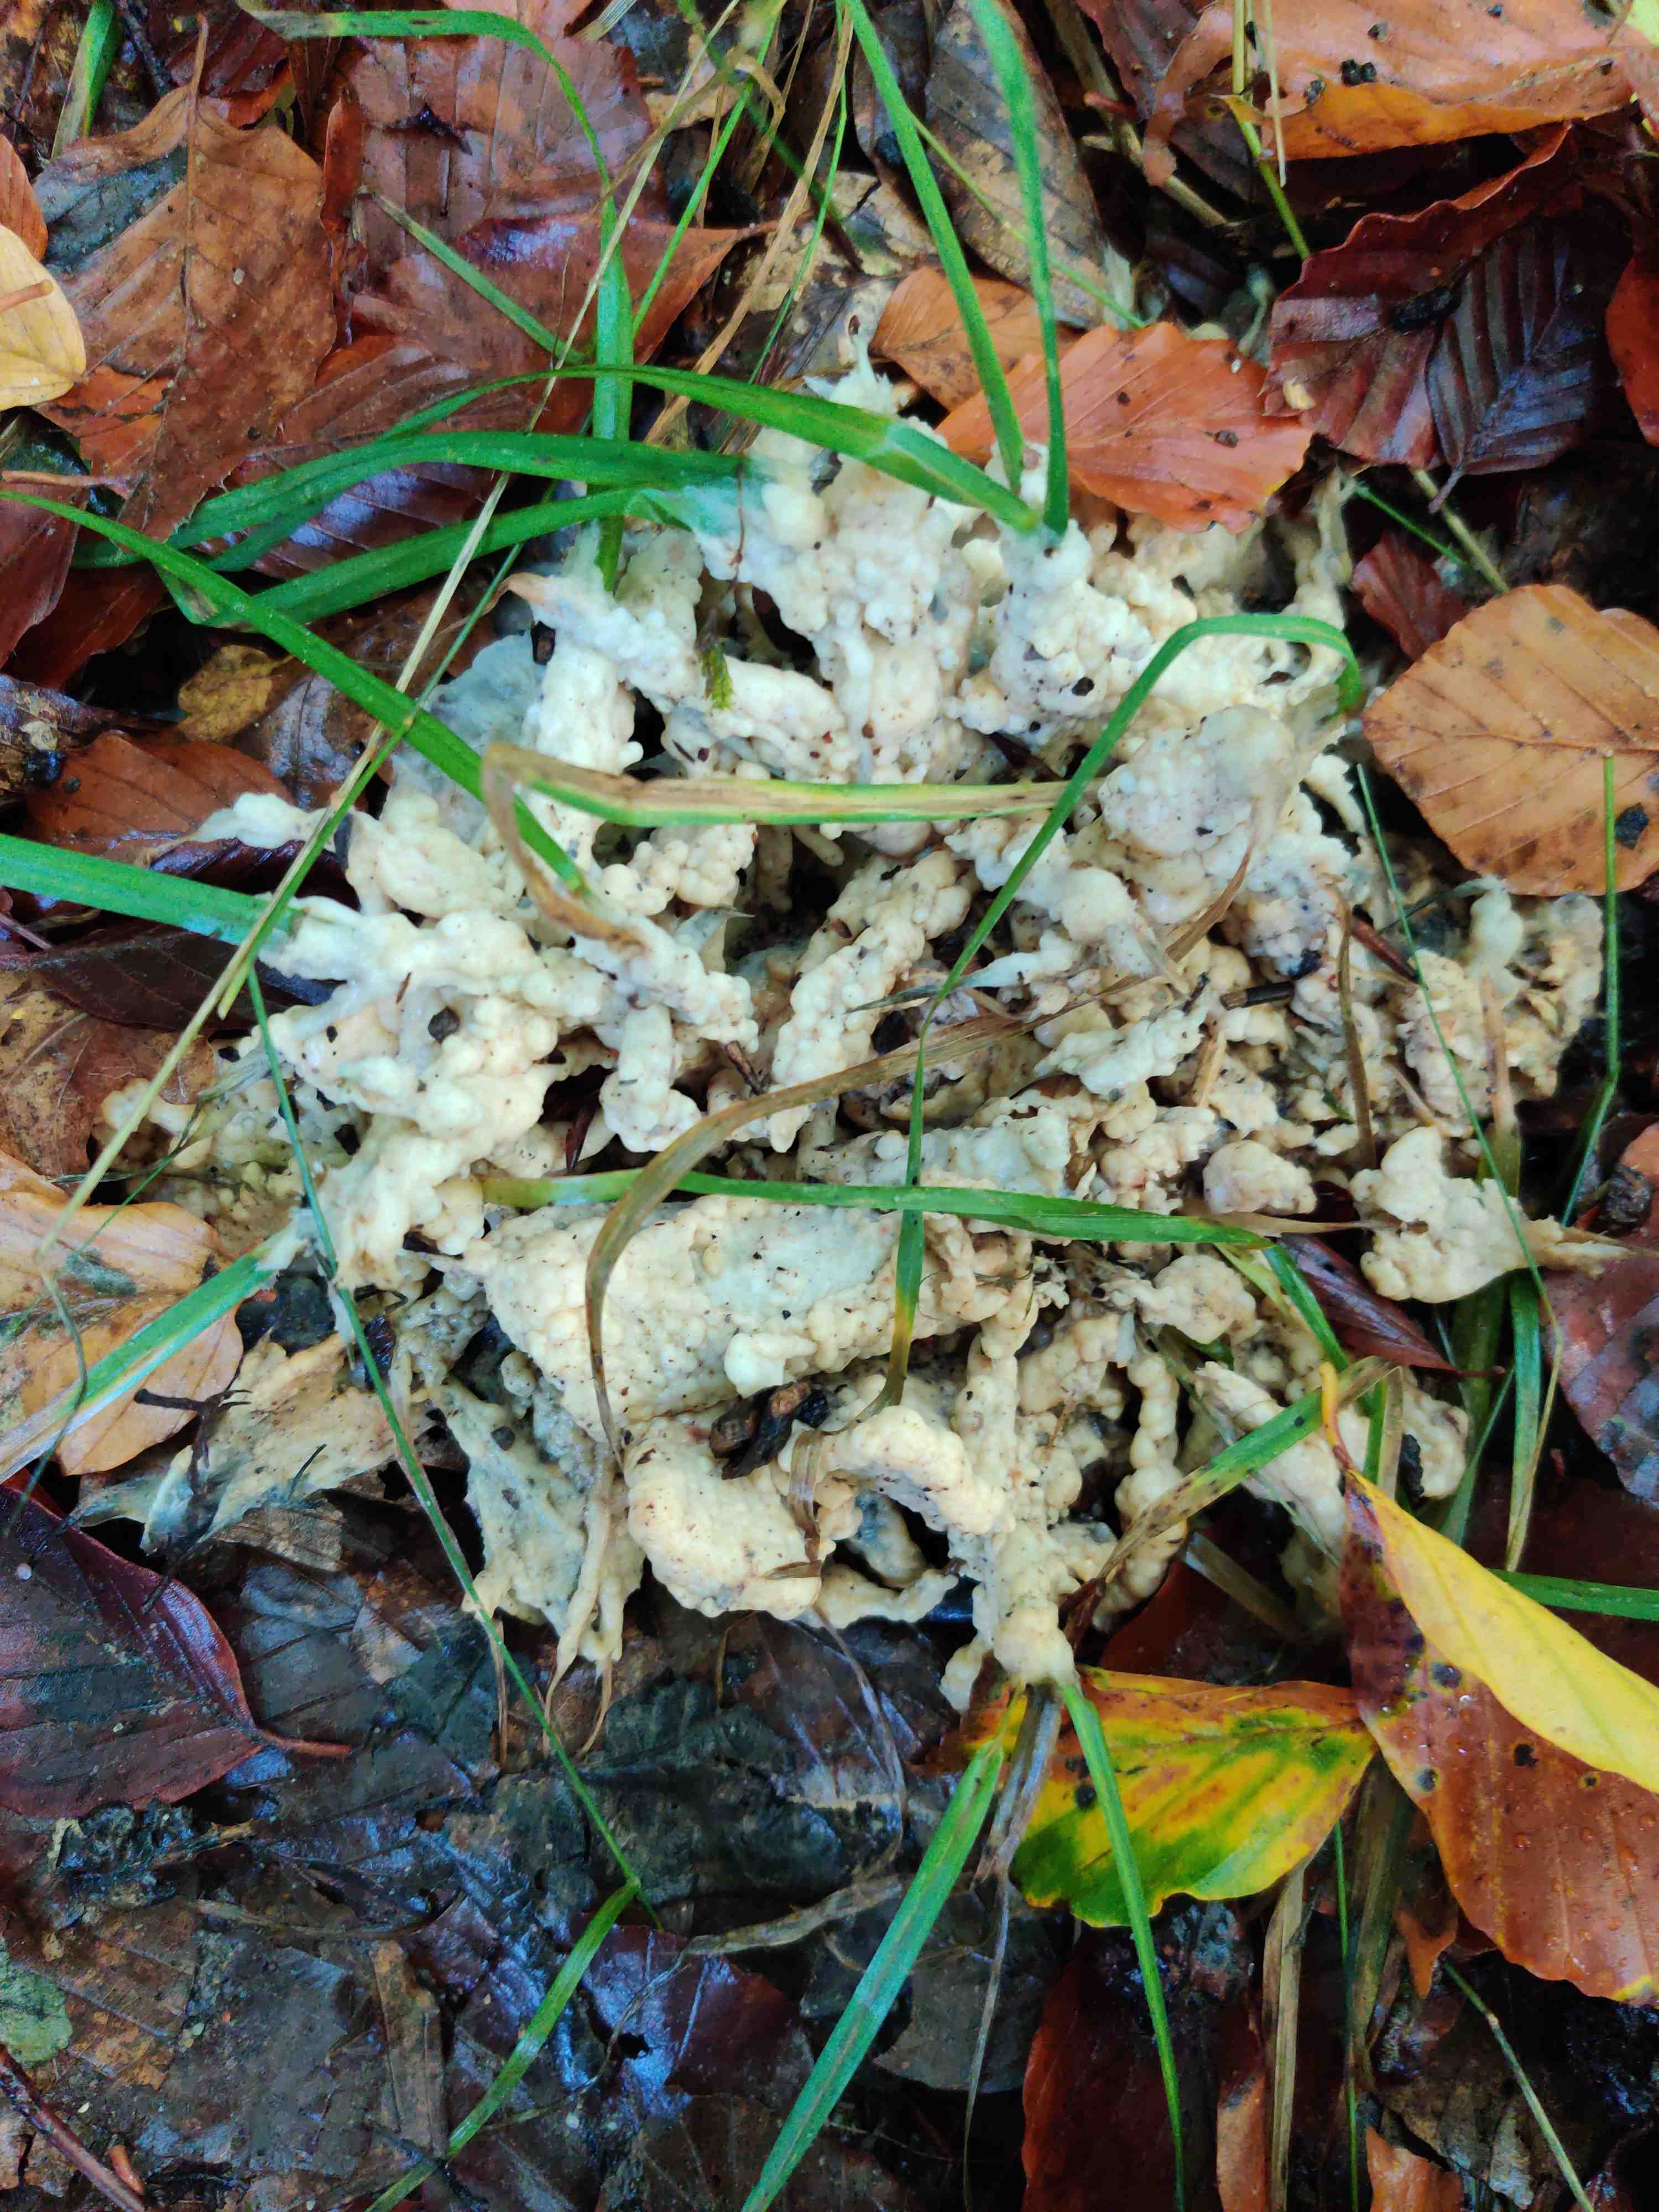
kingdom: Fungi
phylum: Basidiomycota
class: Agaricomycetes
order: Sebacinales
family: Sebacinaceae
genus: Sebacina
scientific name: Sebacina incrustans
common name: krybende bævretalg
